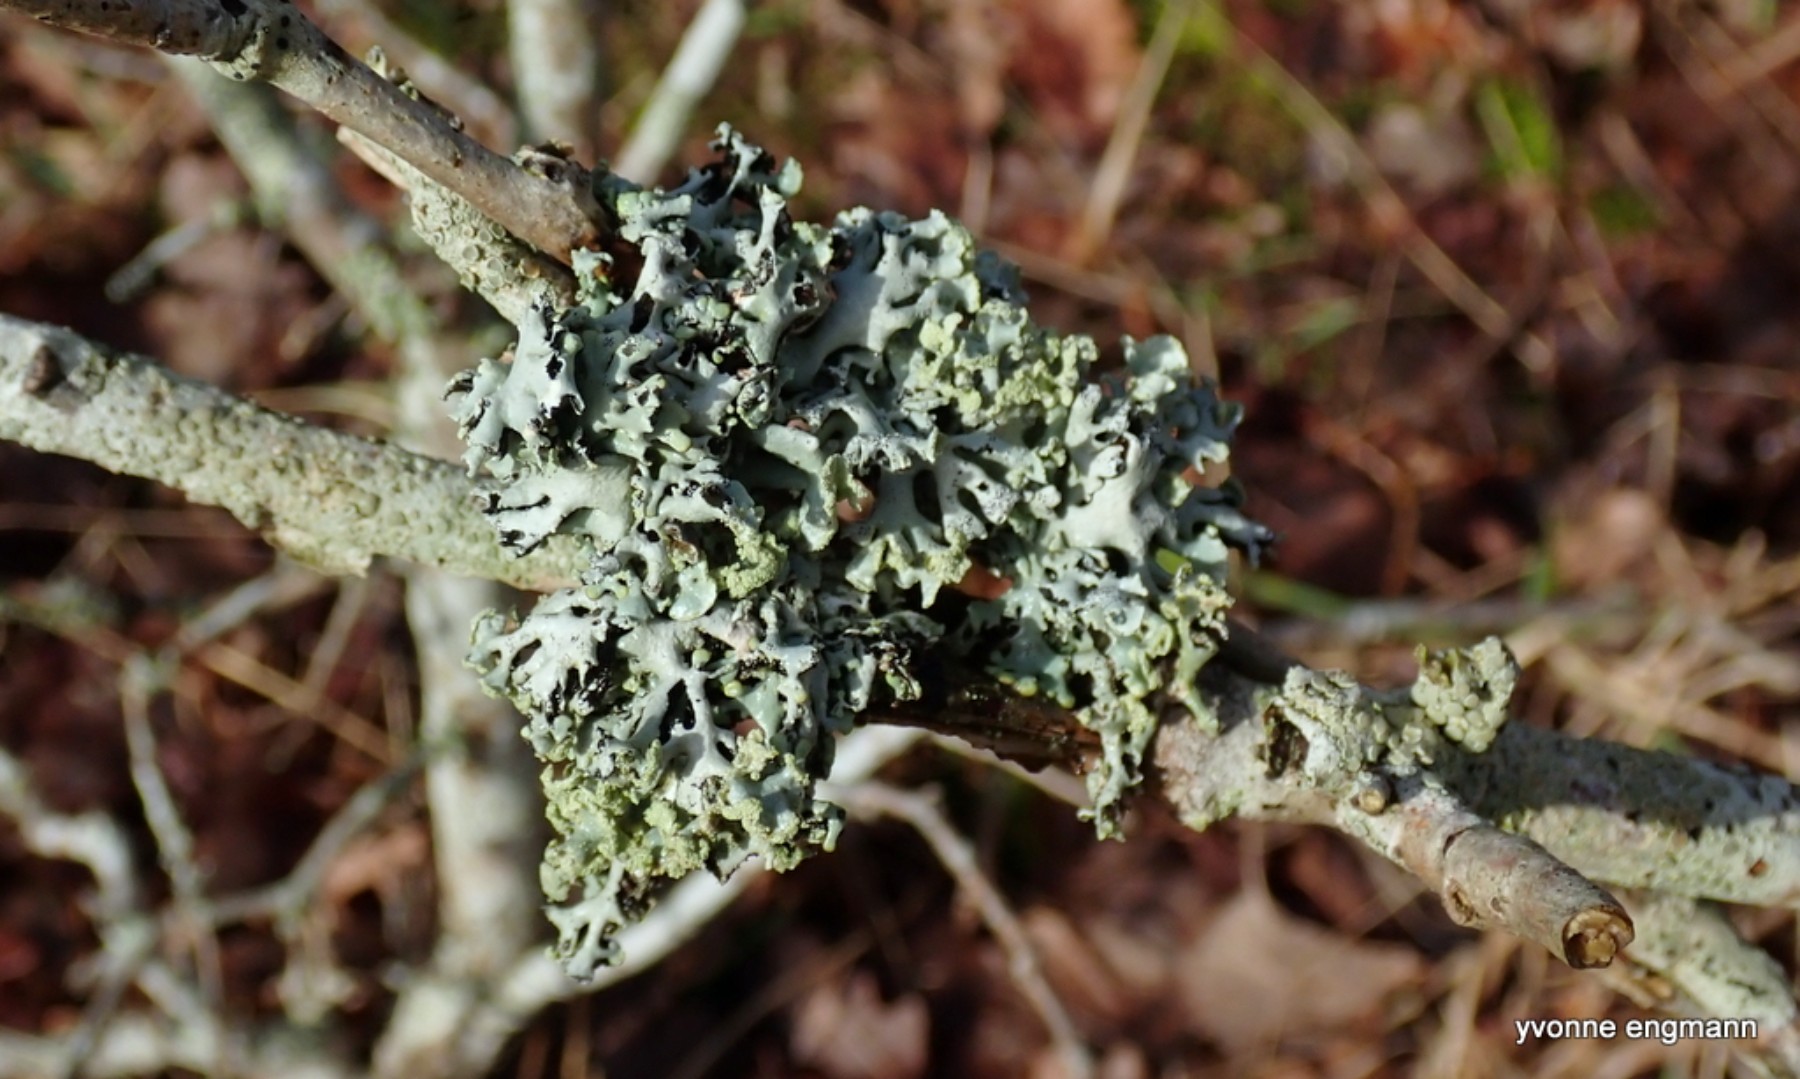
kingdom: Fungi
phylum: Ascomycota
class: Lecanoromycetes
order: Lecanorales
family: Parmeliaceae
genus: Hypogymnia
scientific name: Hypogymnia physodes
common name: almindelig kvistlav
